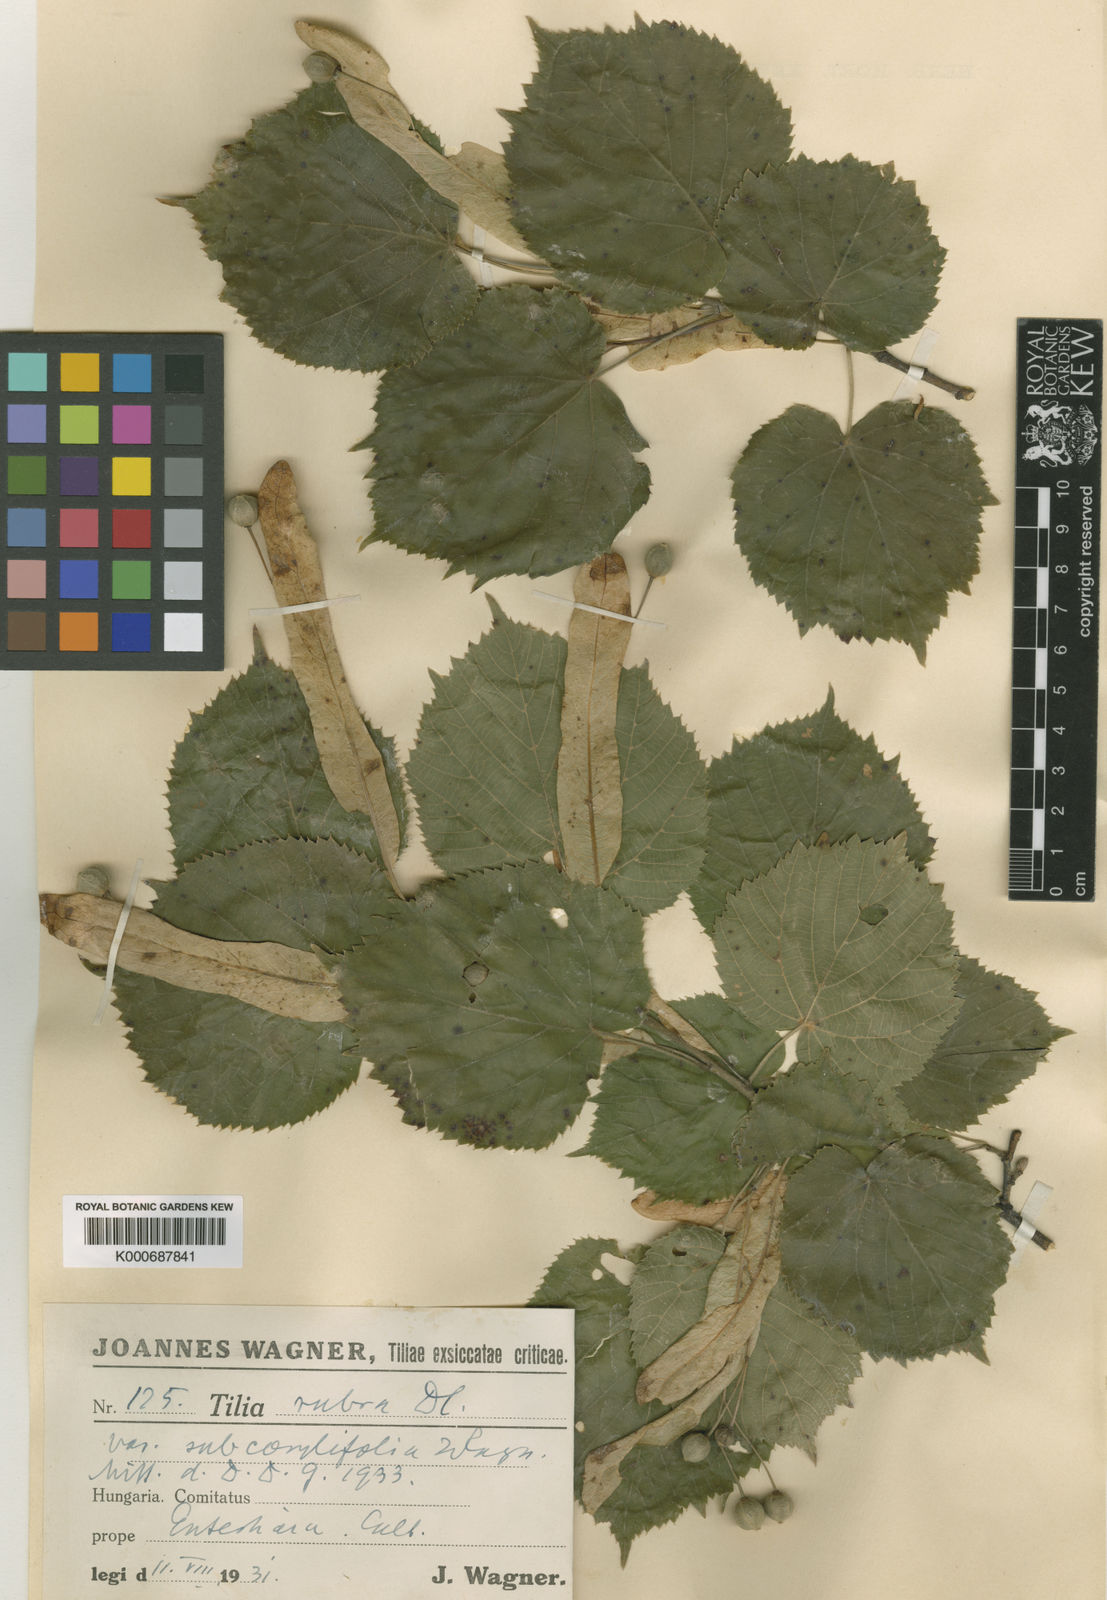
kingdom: Plantae
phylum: Tracheophyta
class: Magnoliopsida
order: Malvales
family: Malvaceae
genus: Tilia
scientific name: Tilia platyphyllos
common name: Large-leaved lime
